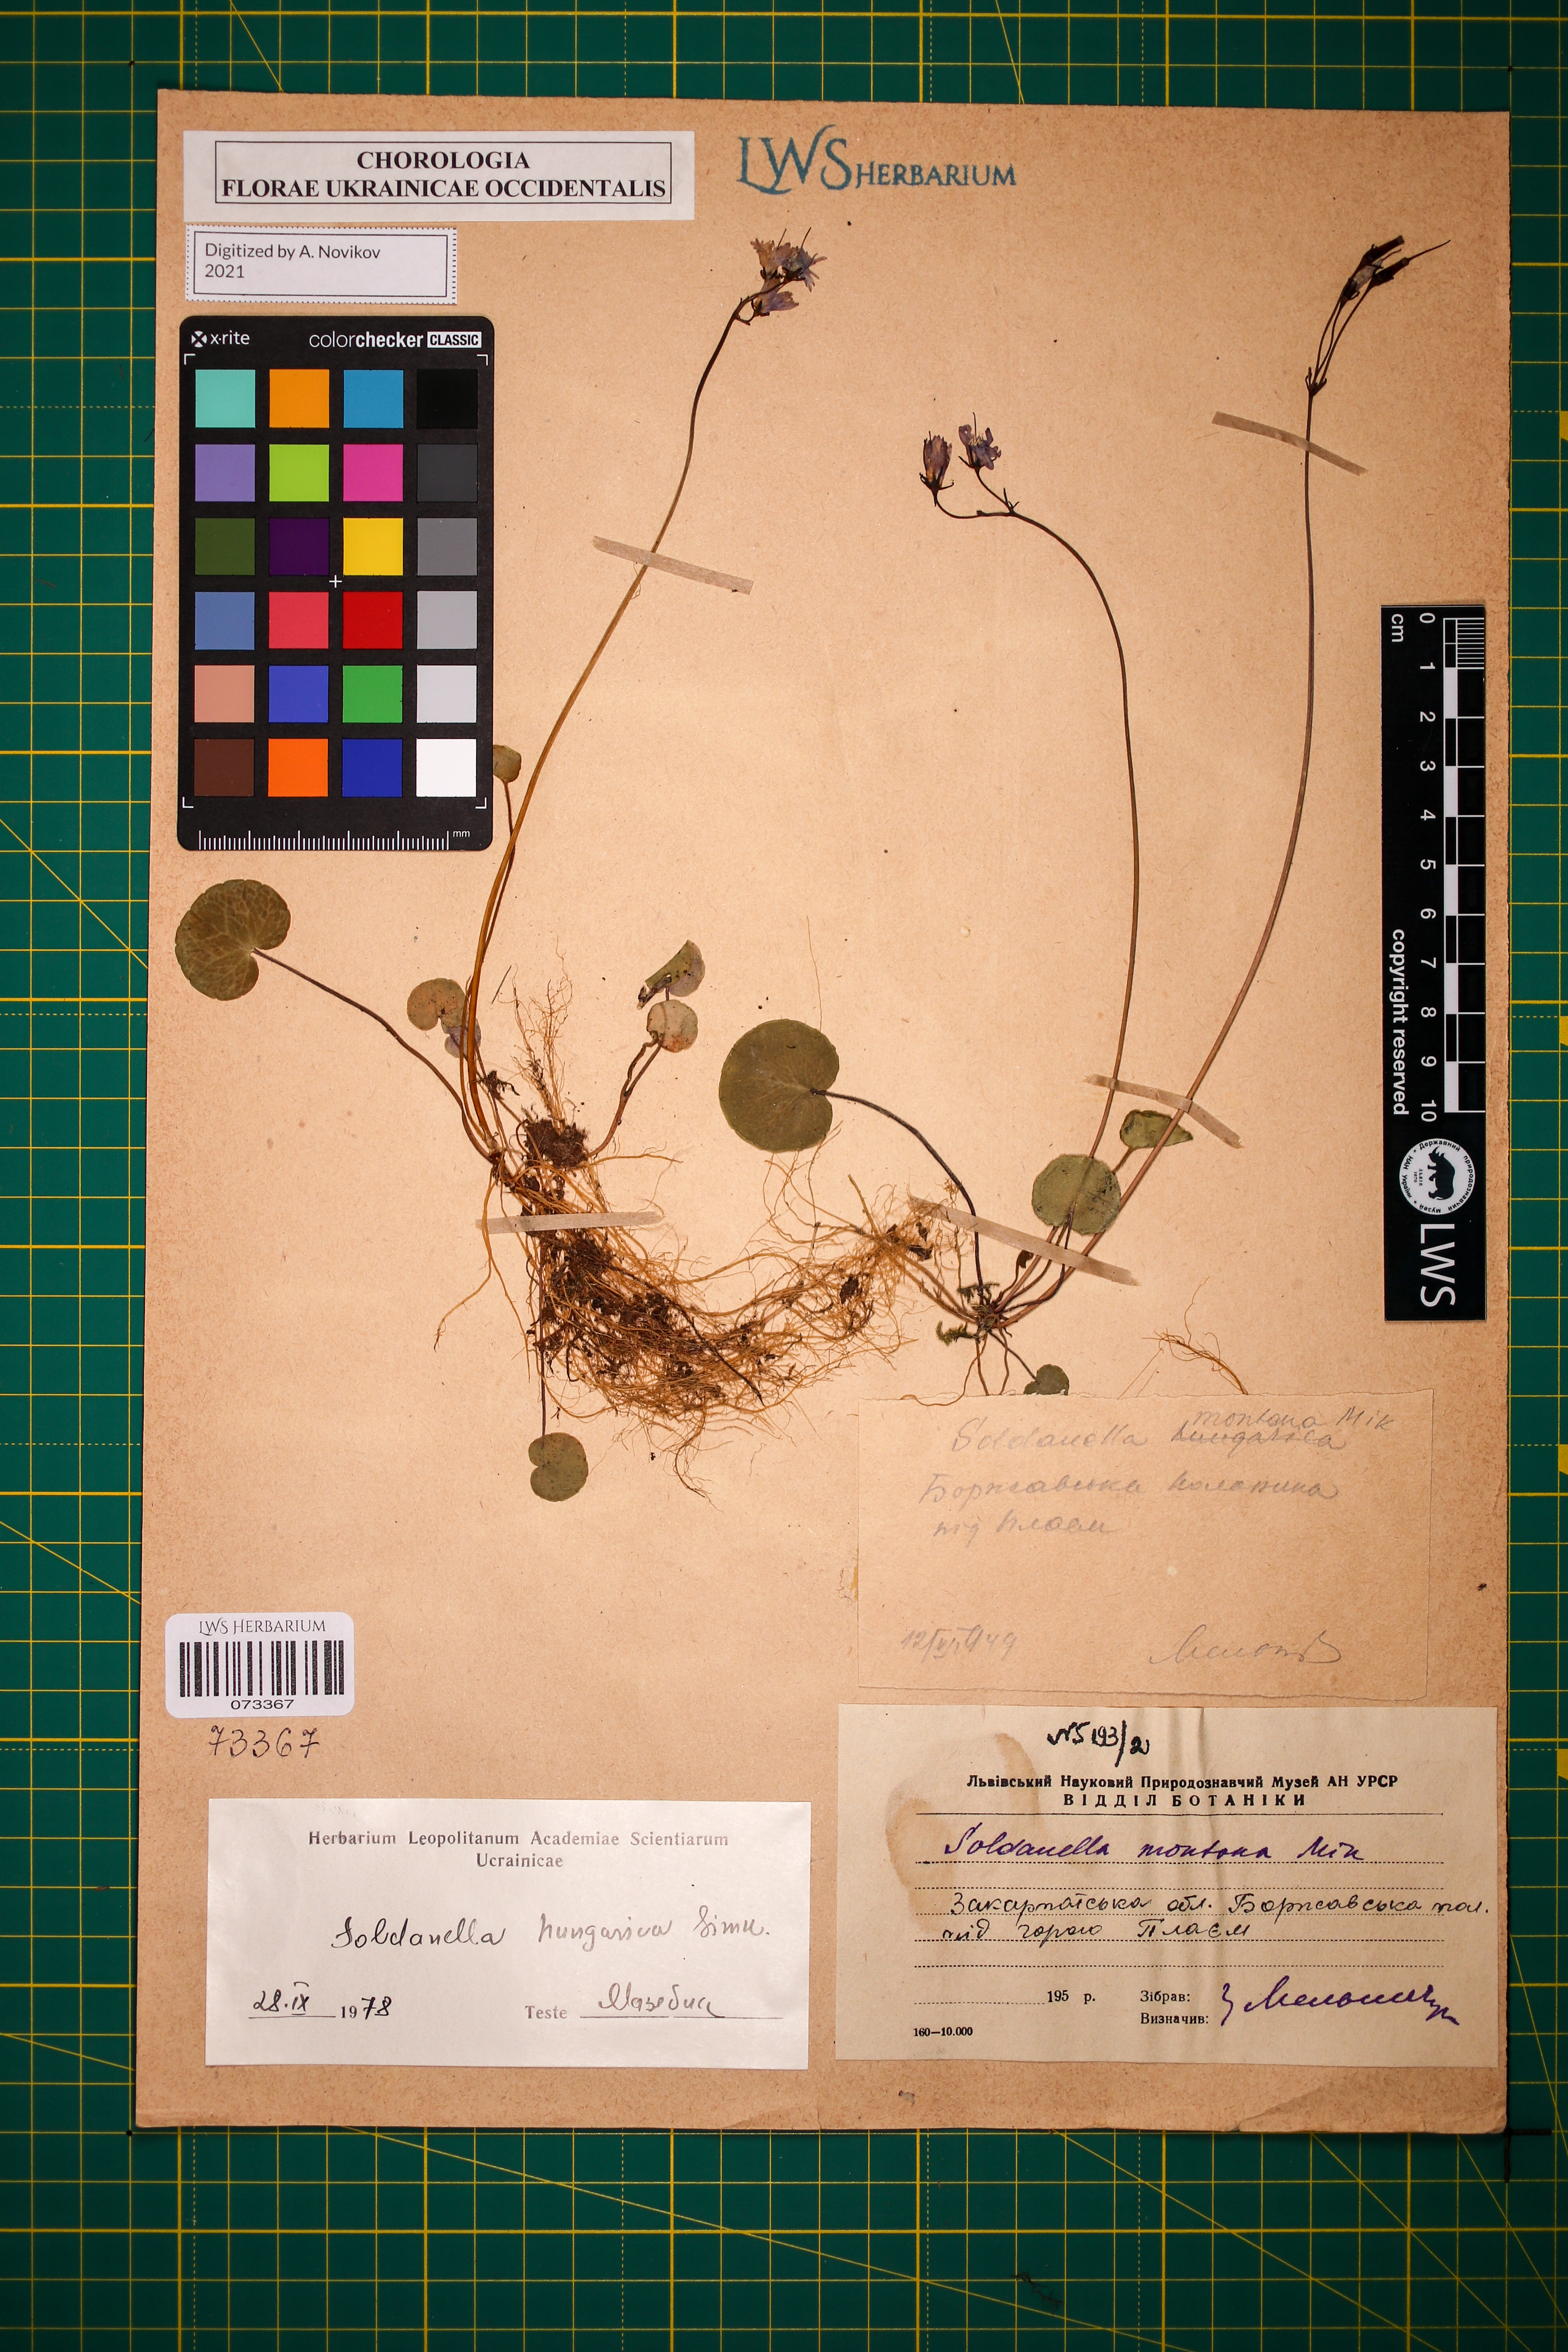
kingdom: Plantae
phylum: Tracheophyta
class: Magnoliopsida
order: Ericales
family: Primulaceae
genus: Soldanella
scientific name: Soldanella hungarica
